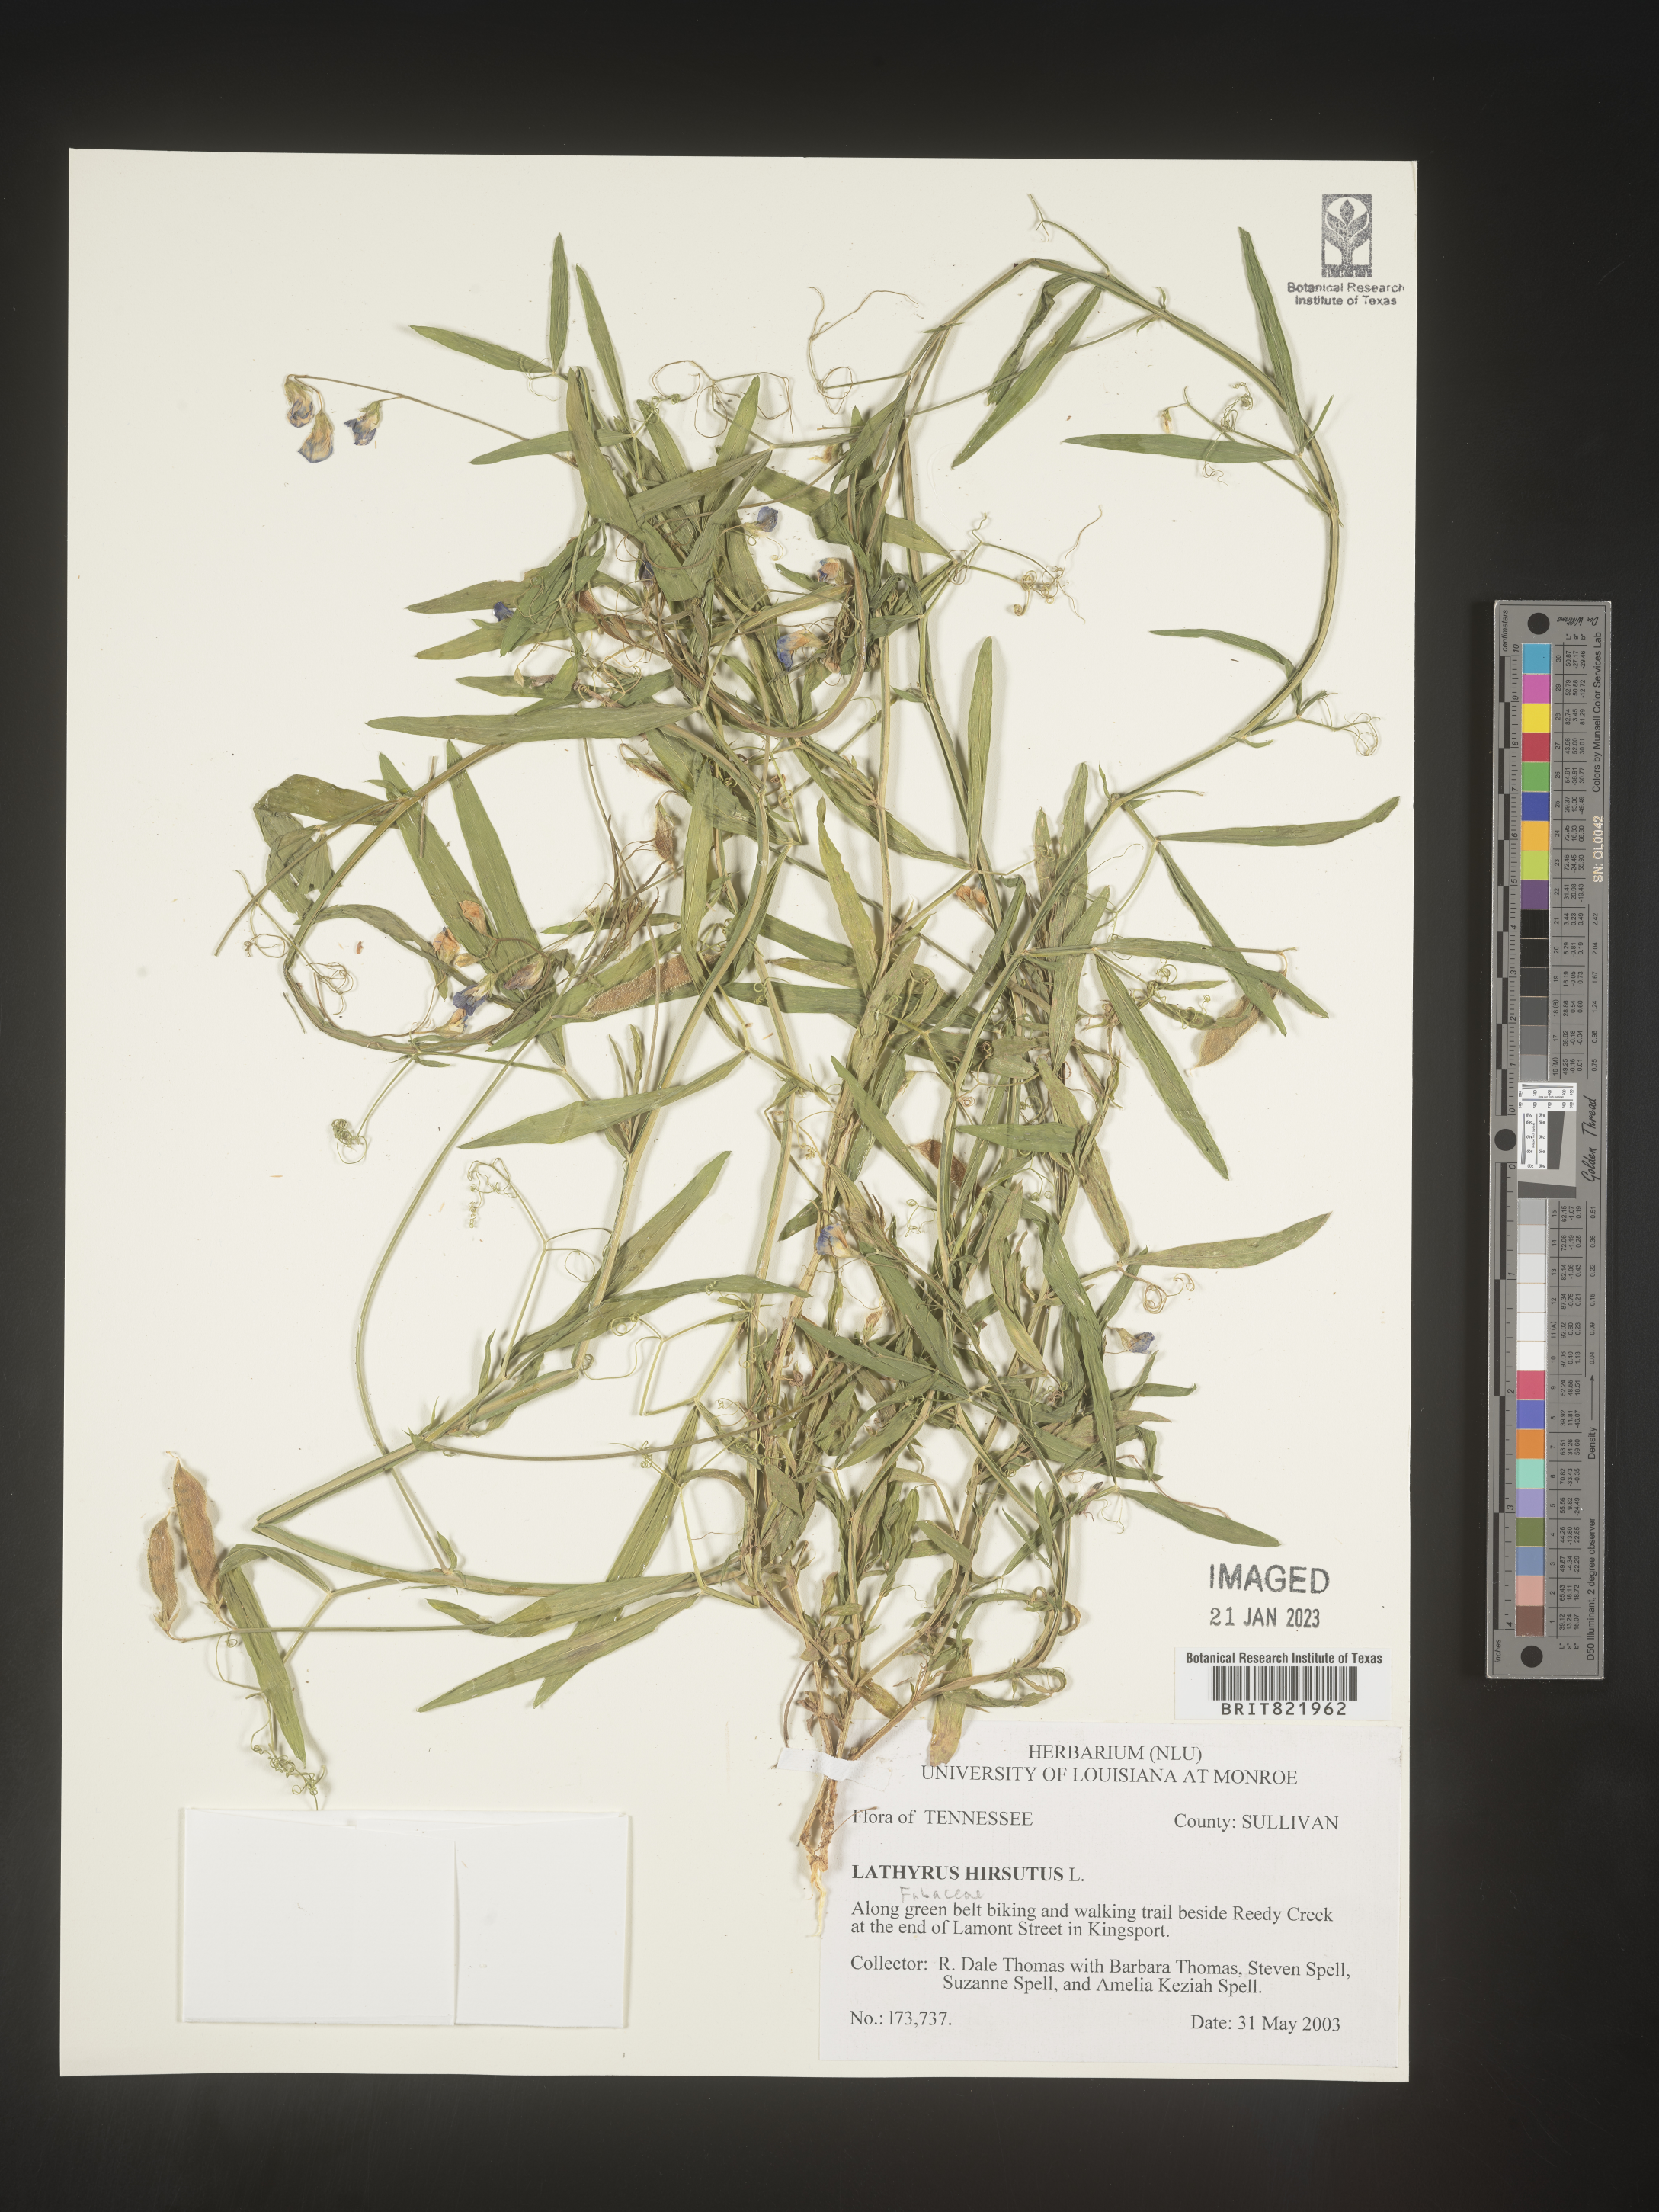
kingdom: Plantae
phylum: Tracheophyta
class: Magnoliopsida
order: Fabales
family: Fabaceae
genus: Lathyrus
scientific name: Lathyrus hirsutus
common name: Hairy vetchling
